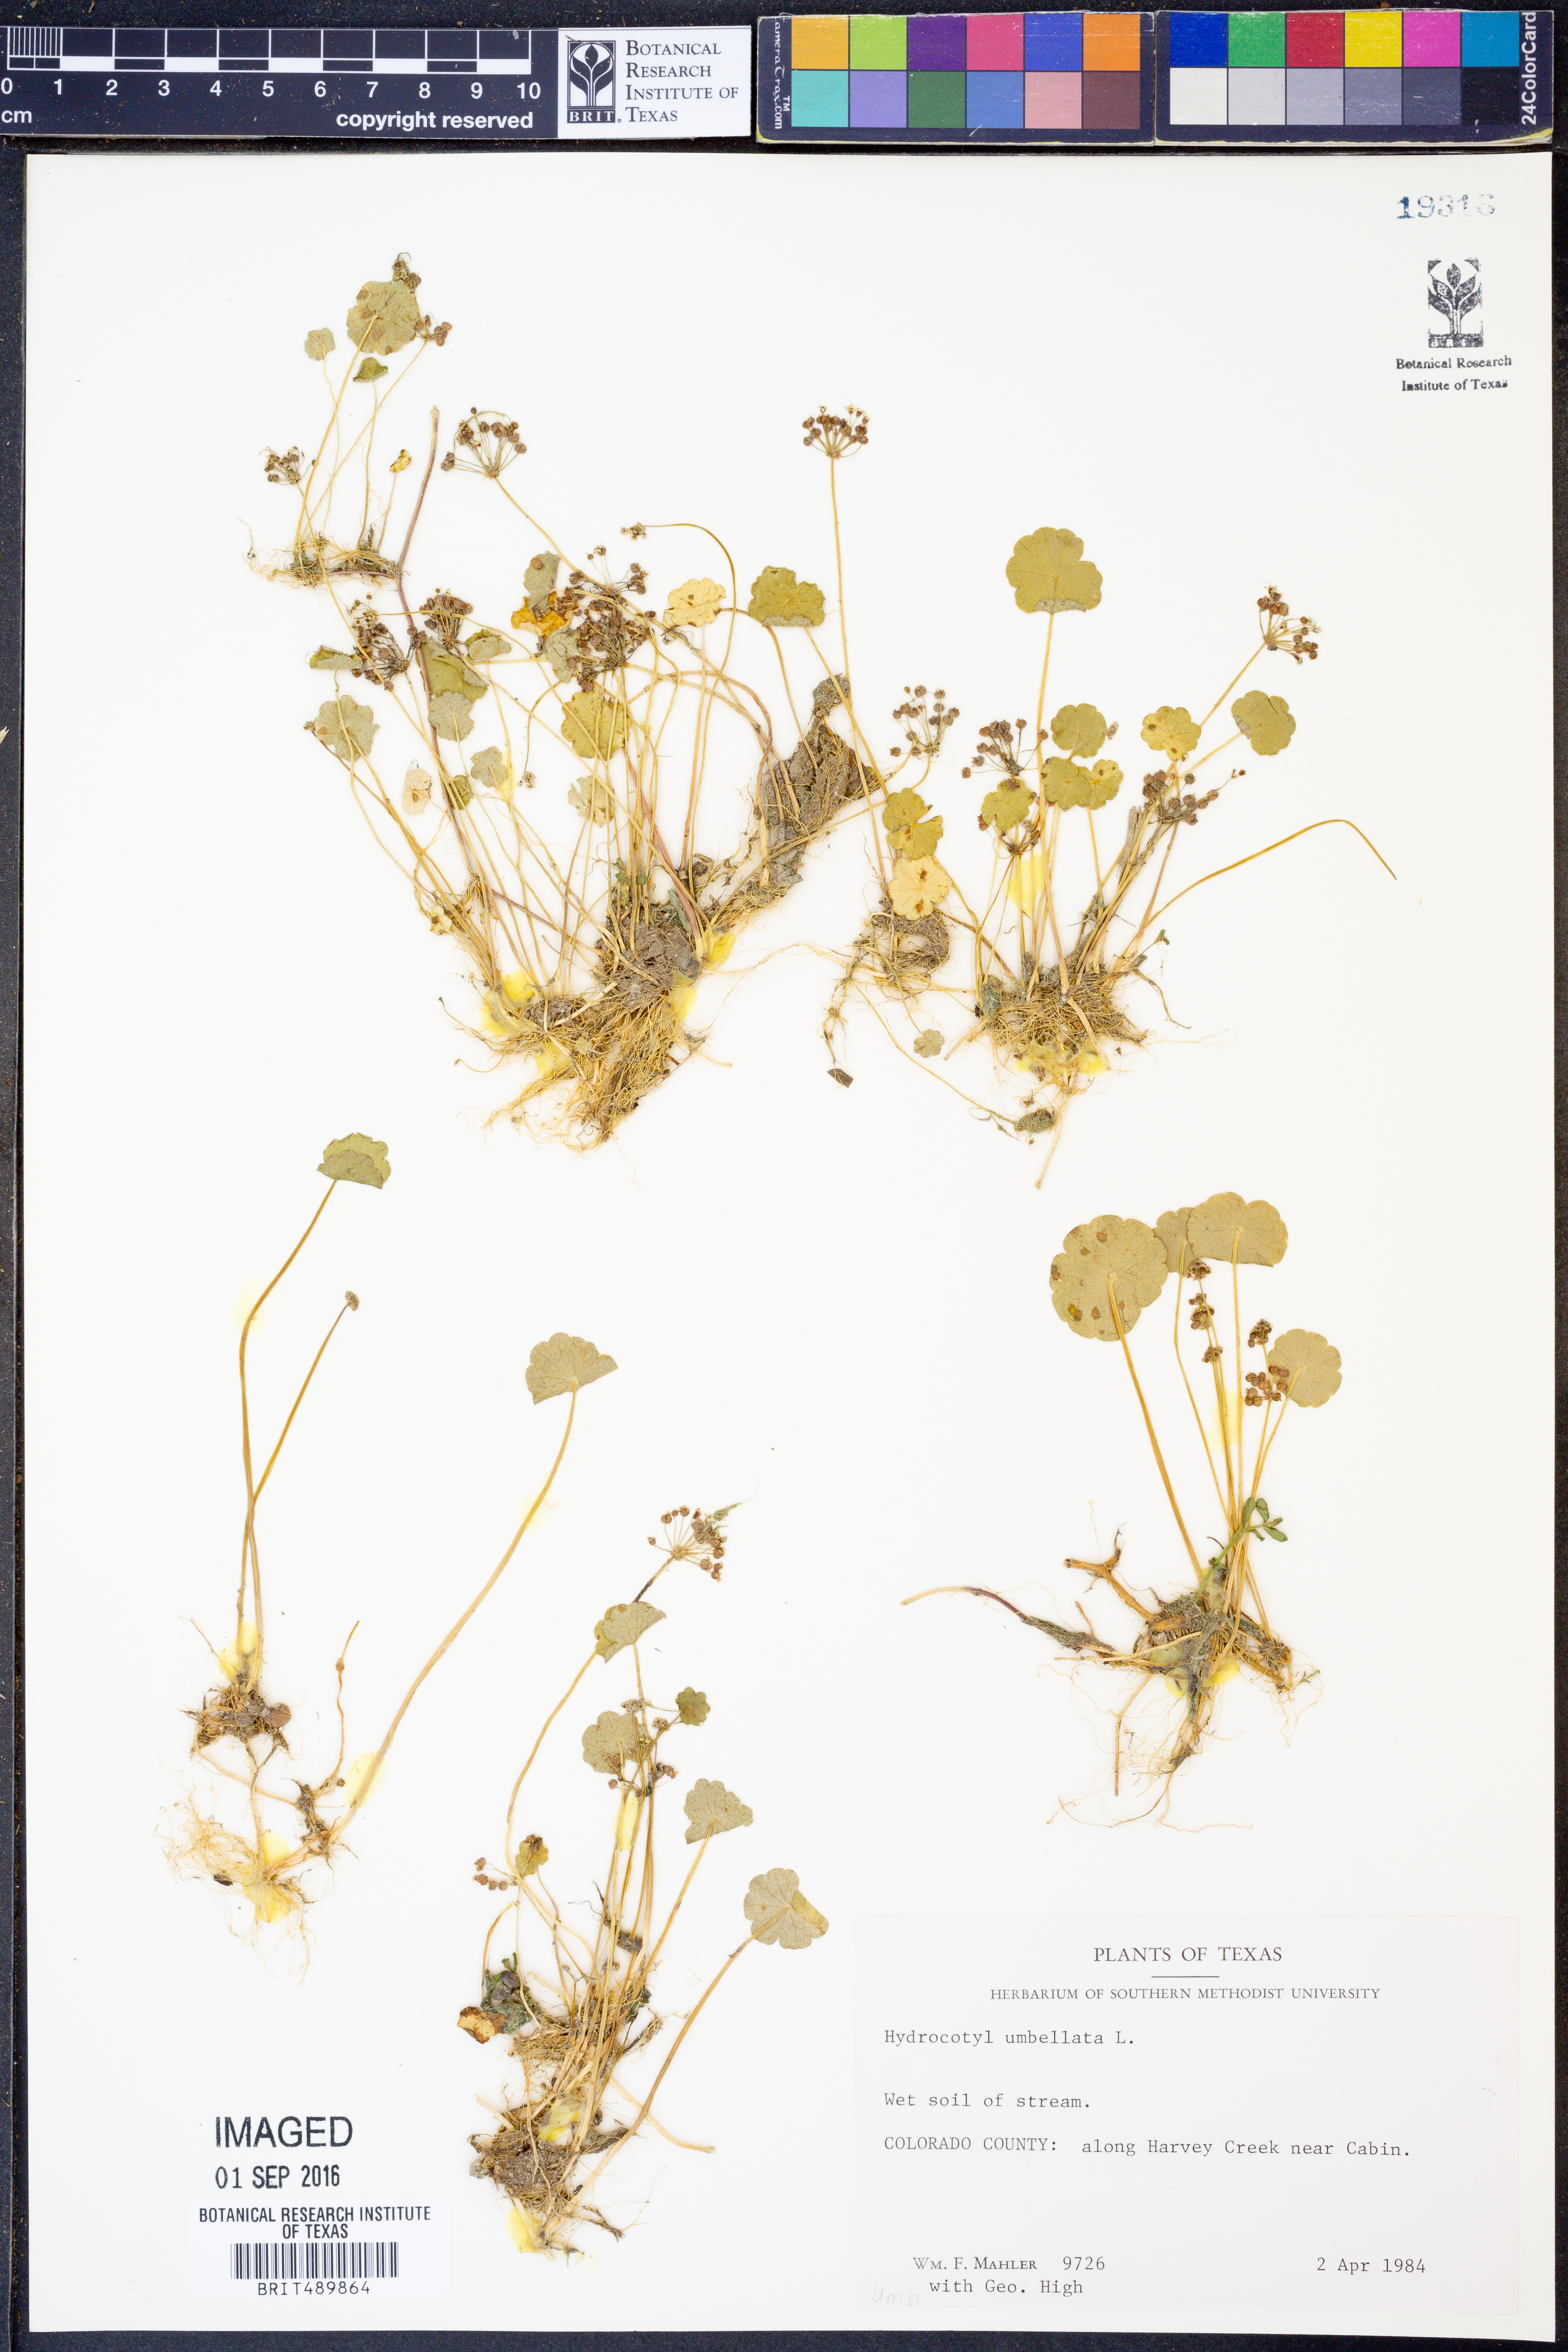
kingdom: Plantae
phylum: Tracheophyta
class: Magnoliopsida
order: Apiales
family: Araliaceae
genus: Hydrocotyle
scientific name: Hydrocotyle umbellata
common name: Water pennywort
